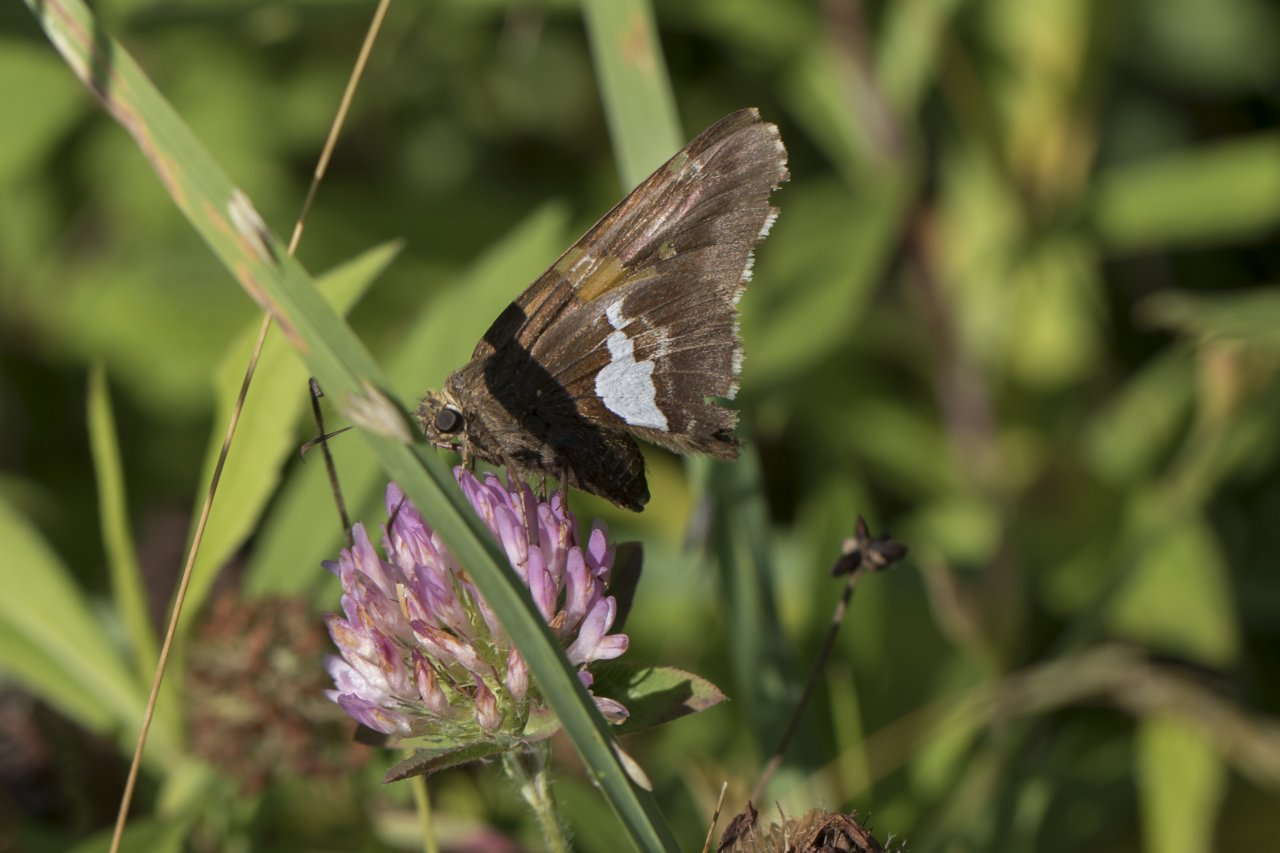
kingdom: Animalia
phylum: Arthropoda
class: Insecta
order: Lepidoptera
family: Hesperiidae
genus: Epargyreus
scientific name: Epargyreus clarus
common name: Silver-spotted Skipper
